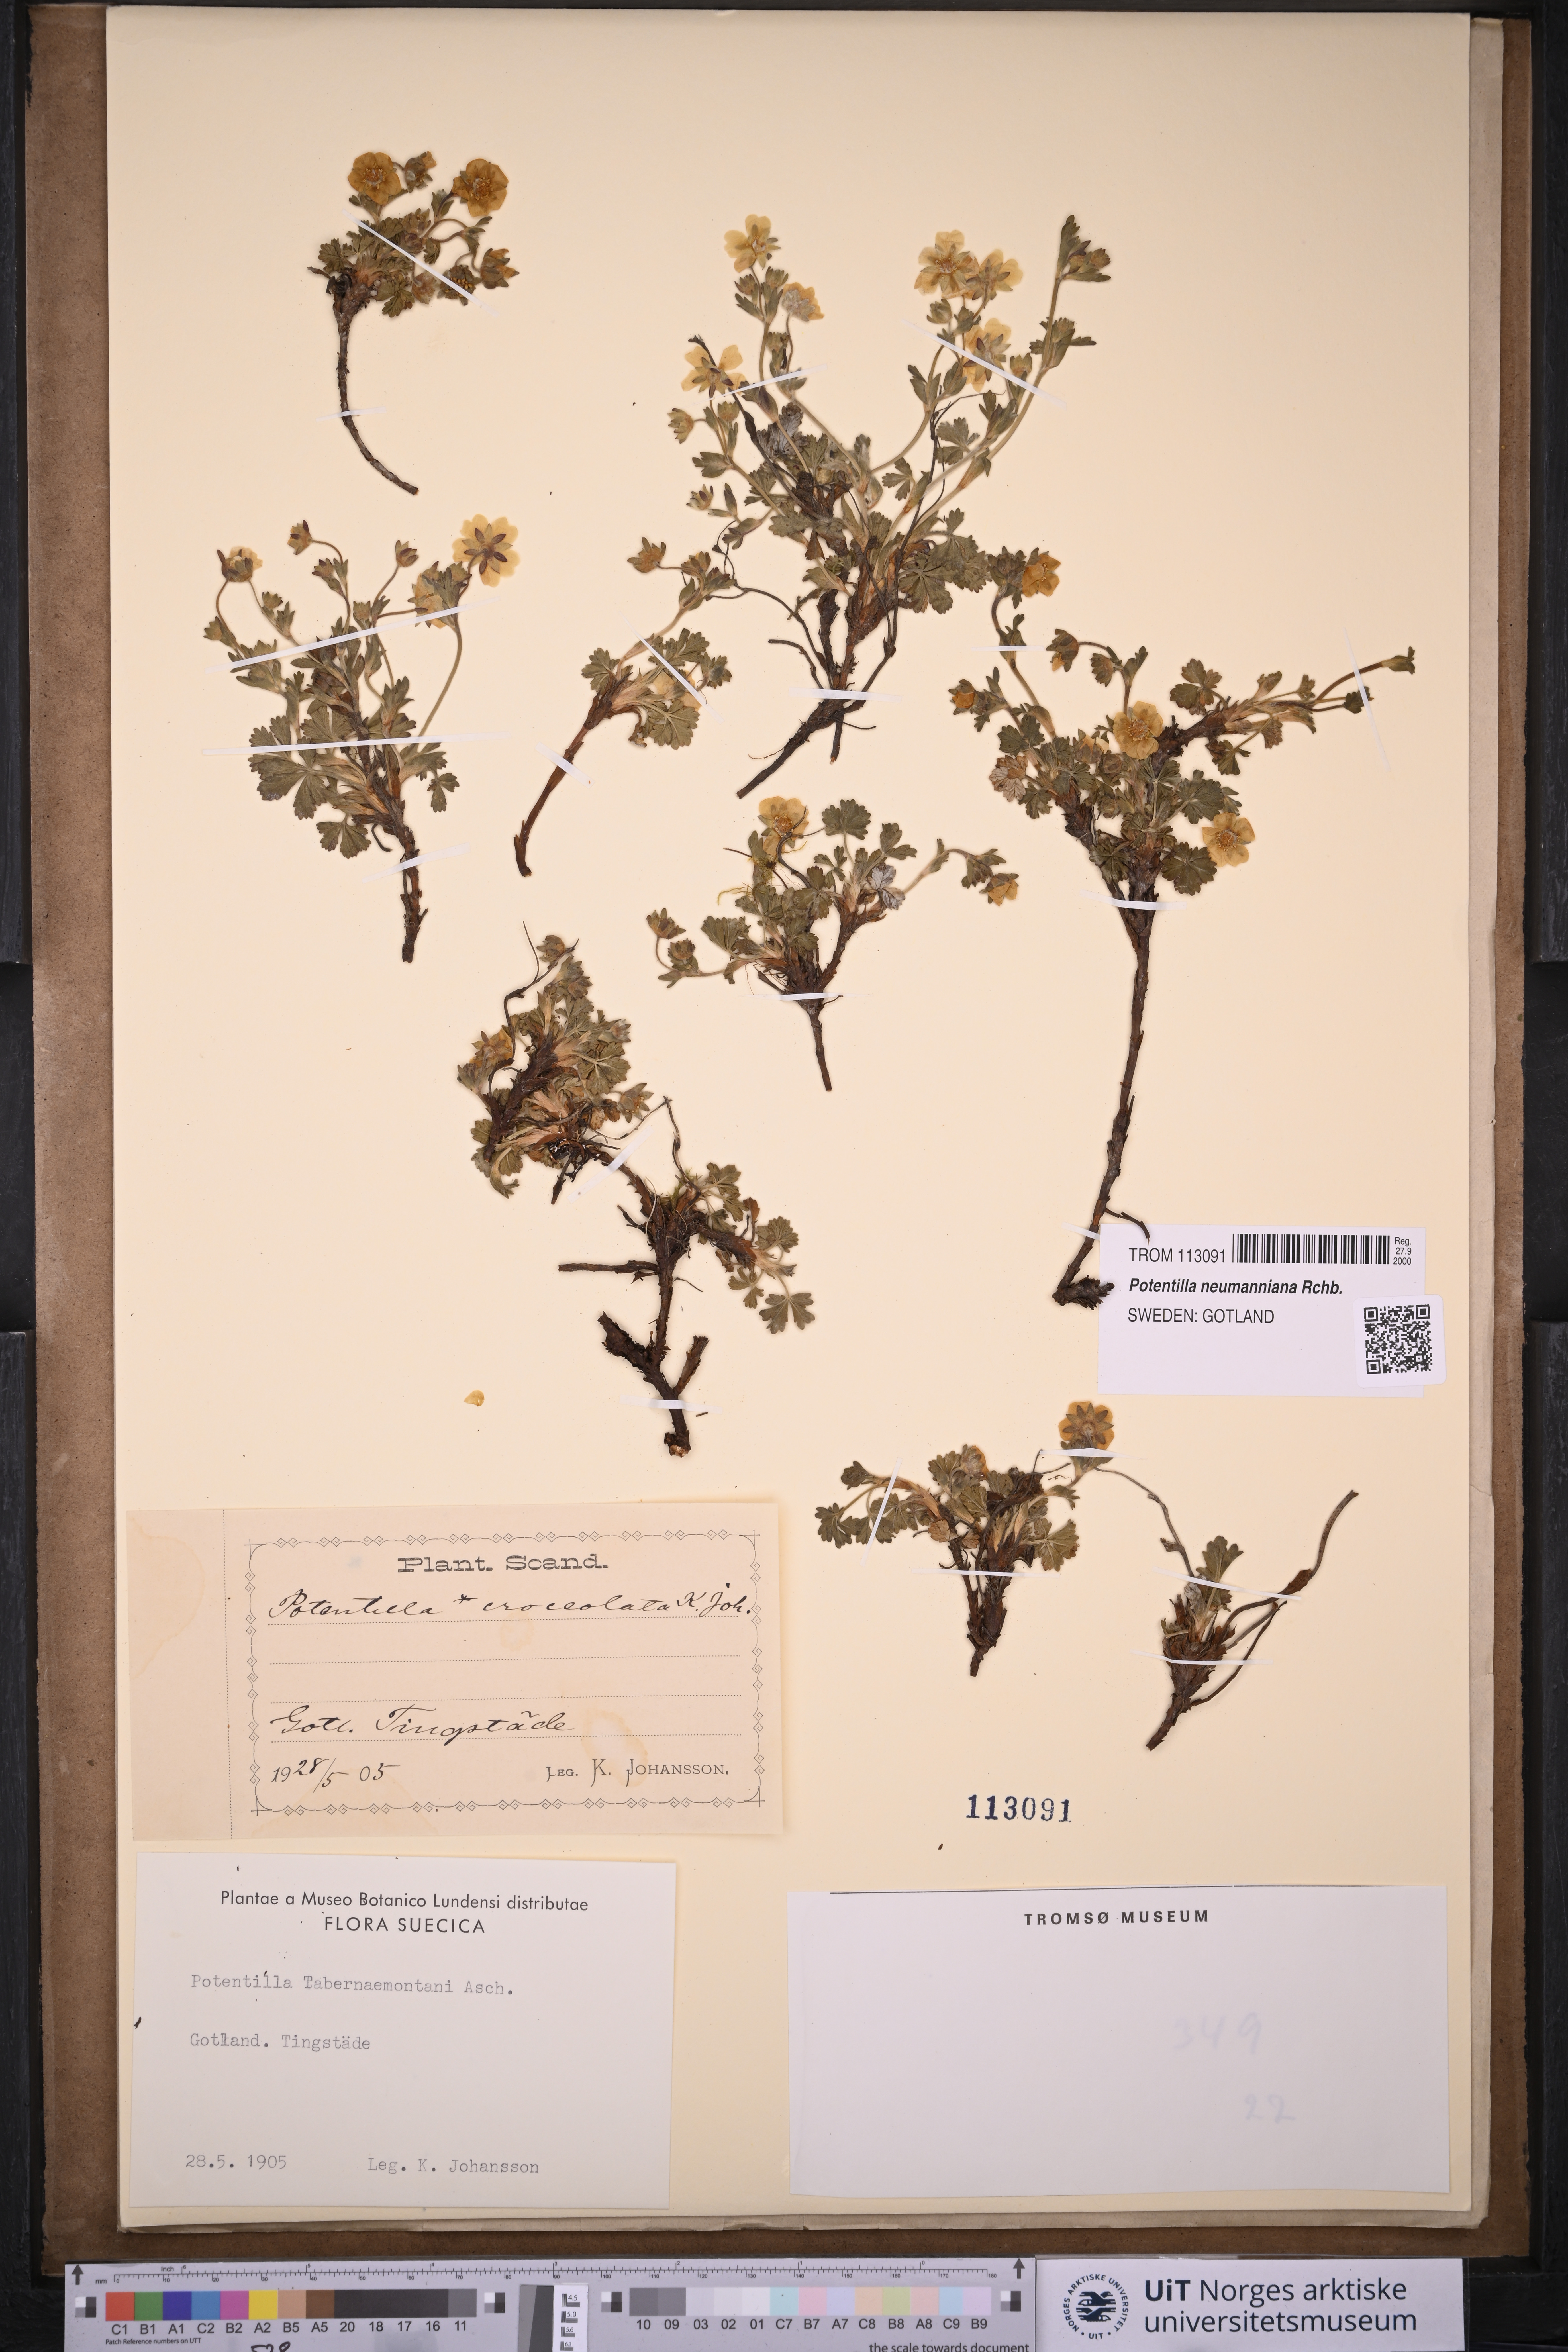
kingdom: Plantae
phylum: Tracheophyta
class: Magnoliopsida
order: Rosales
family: Rosaceae
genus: Potentilla
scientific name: Potentilla verna
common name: Spring cinquefoil
